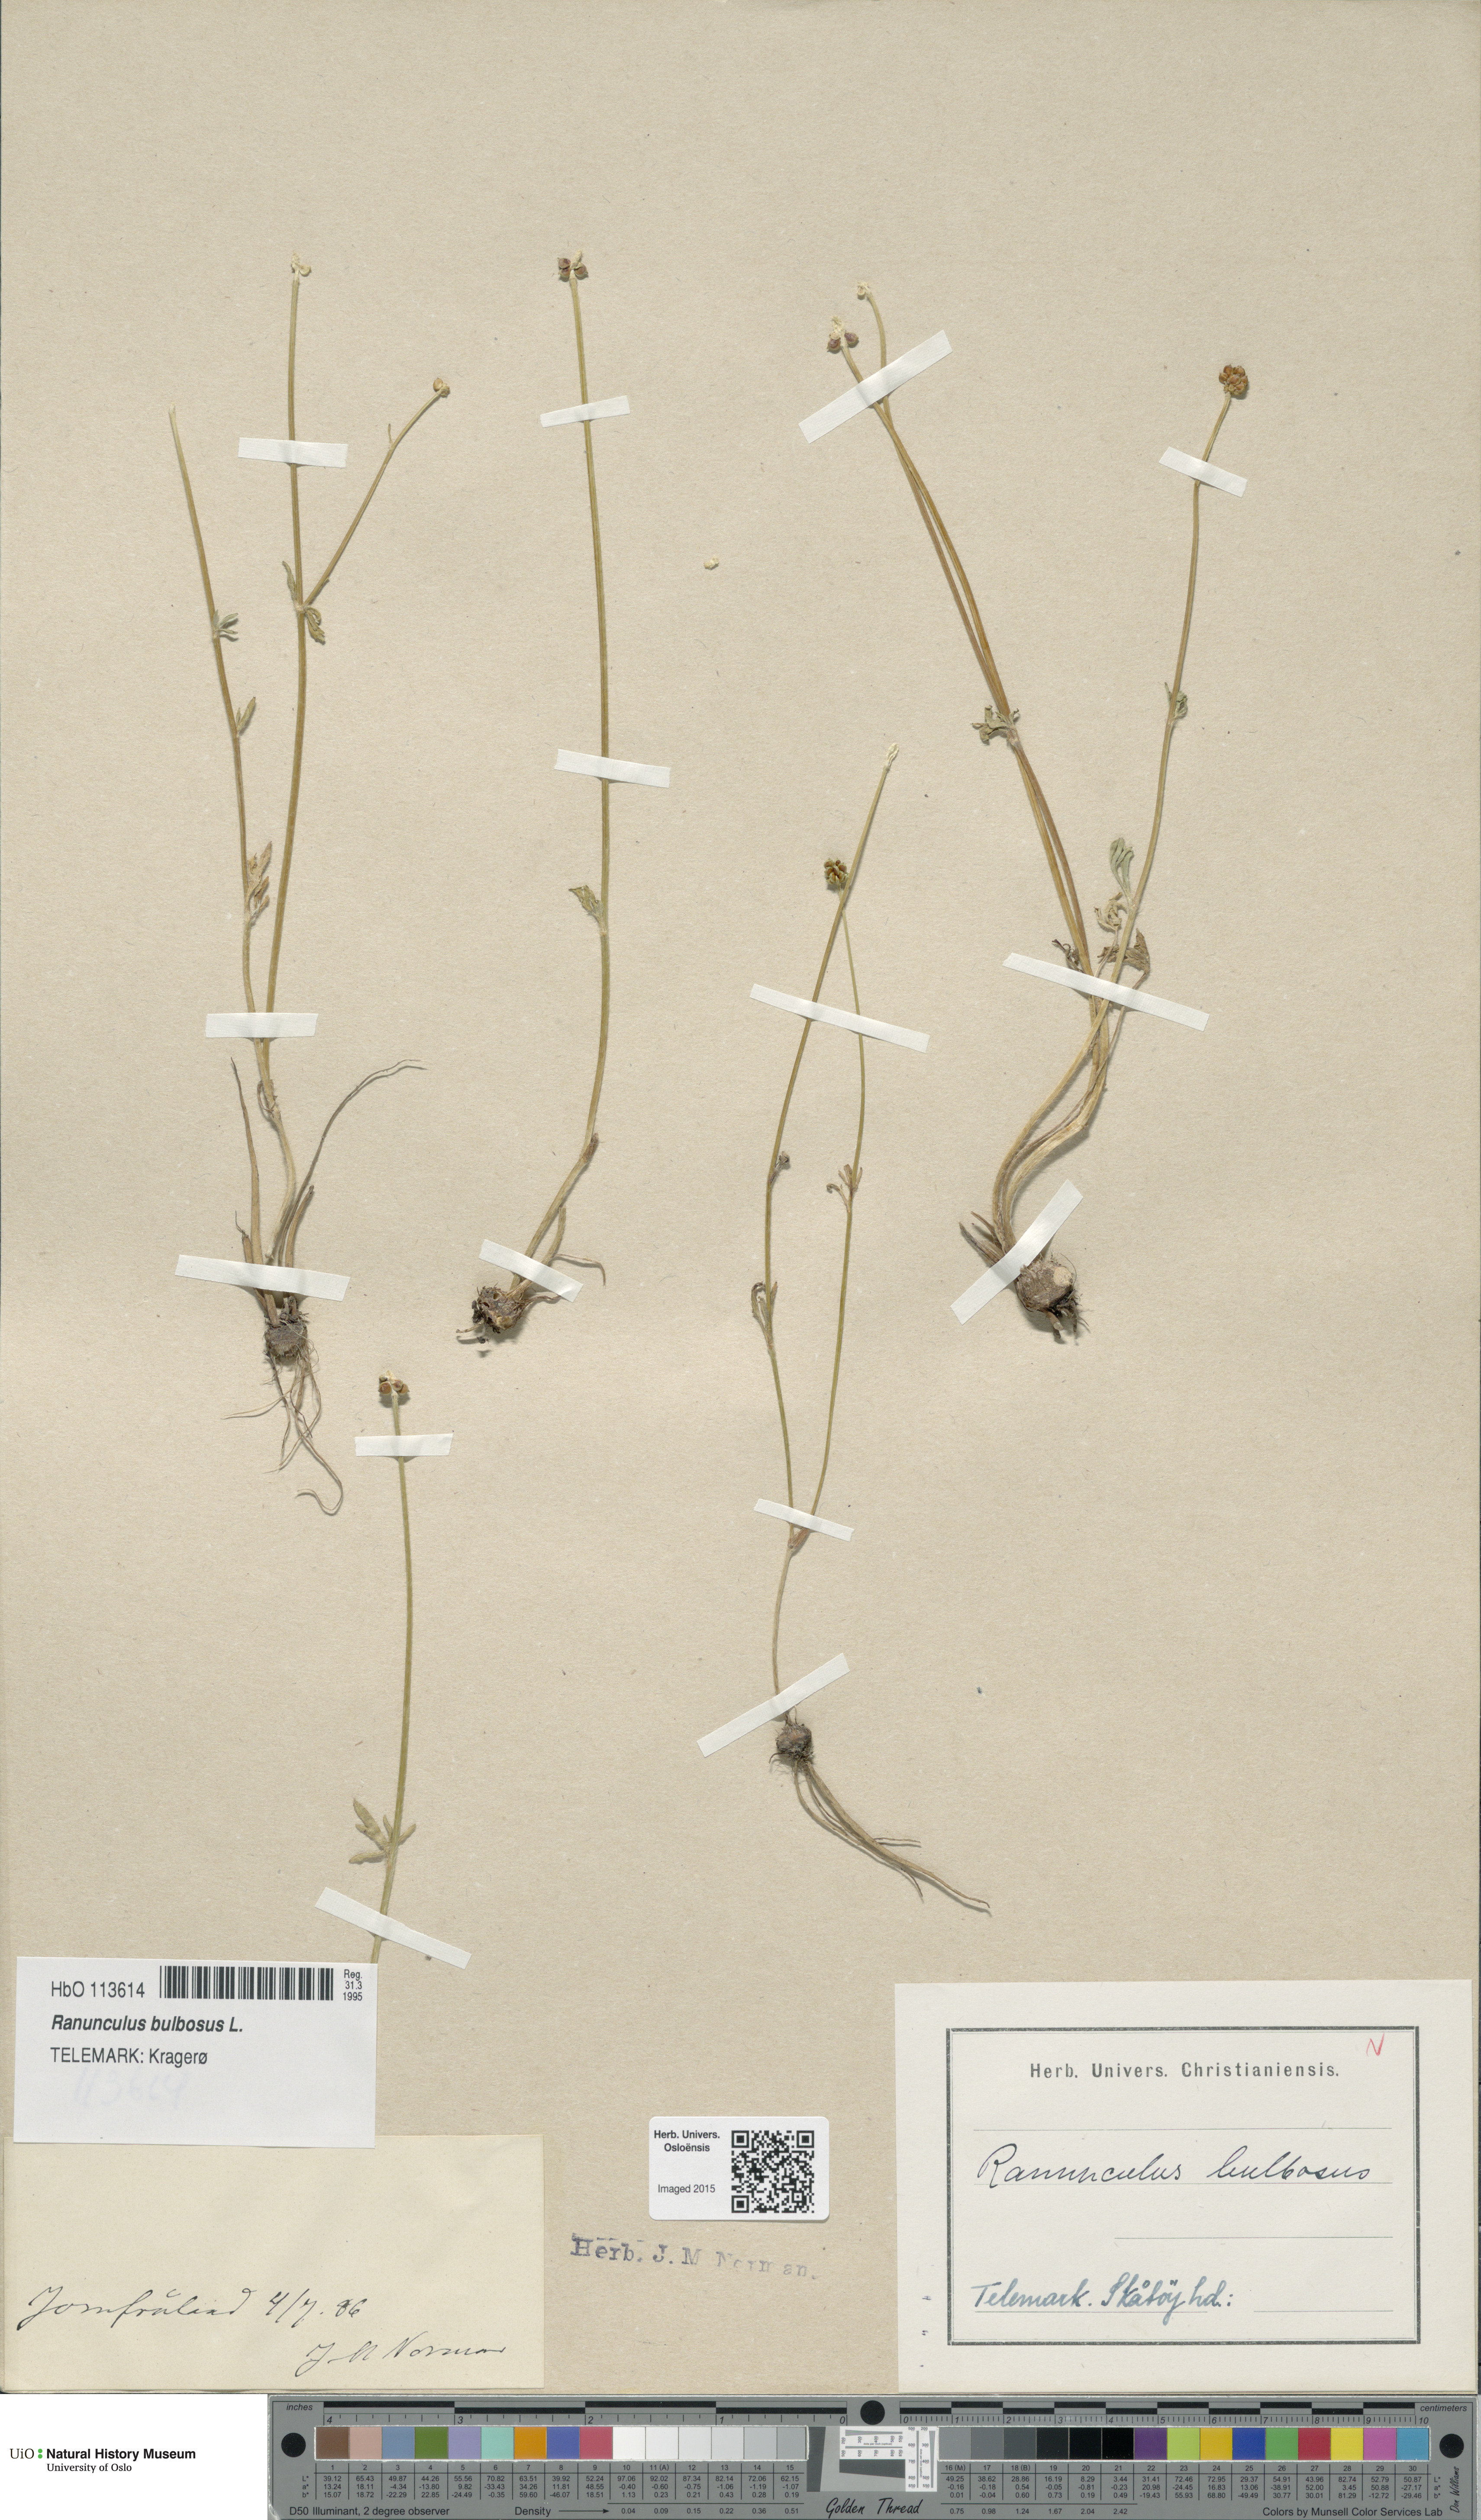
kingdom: Plantae
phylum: Tracheophyta
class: Magnoliopsida
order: Ranunculales
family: Ranunculaceae
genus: Ranunculus
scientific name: Ranunculus bulbosus
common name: Bulbous buttercup
